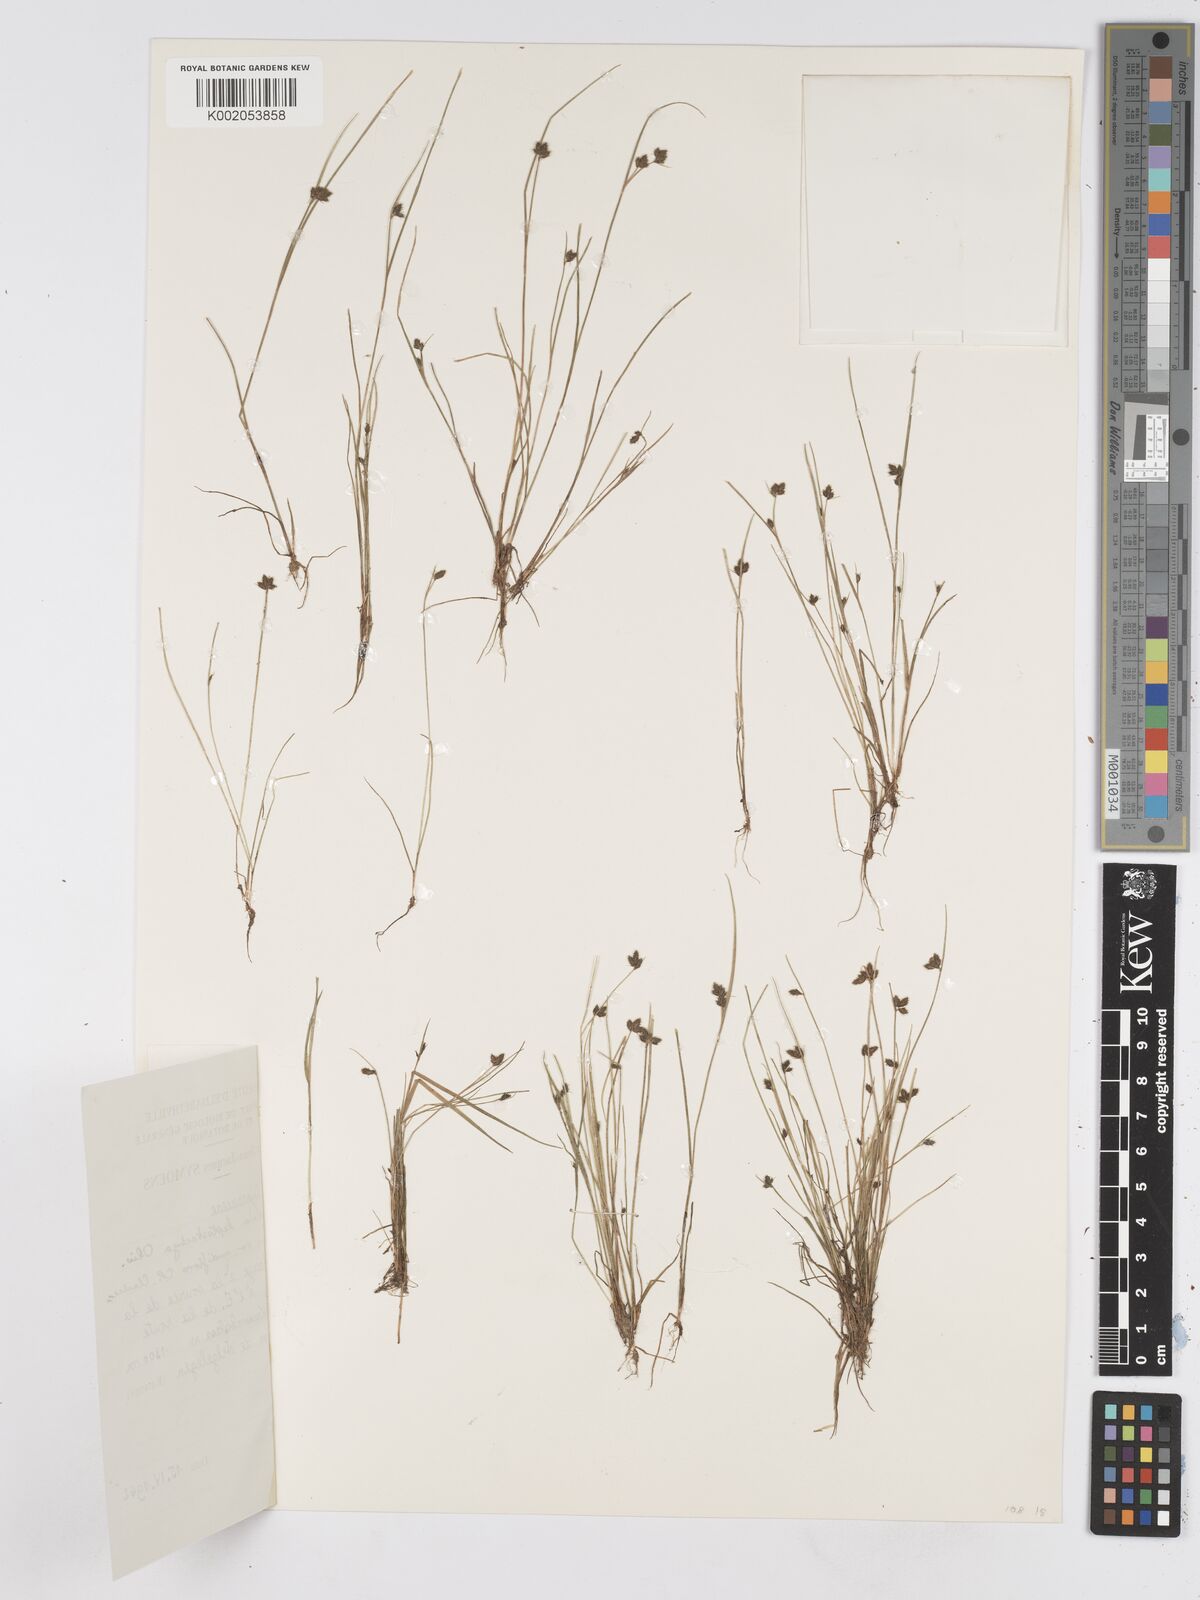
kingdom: Plantae
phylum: Tracheophyta
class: Liliopsida
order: Poales
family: Cyperaceae
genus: Fuirena
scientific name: Fuirena leptostachya
